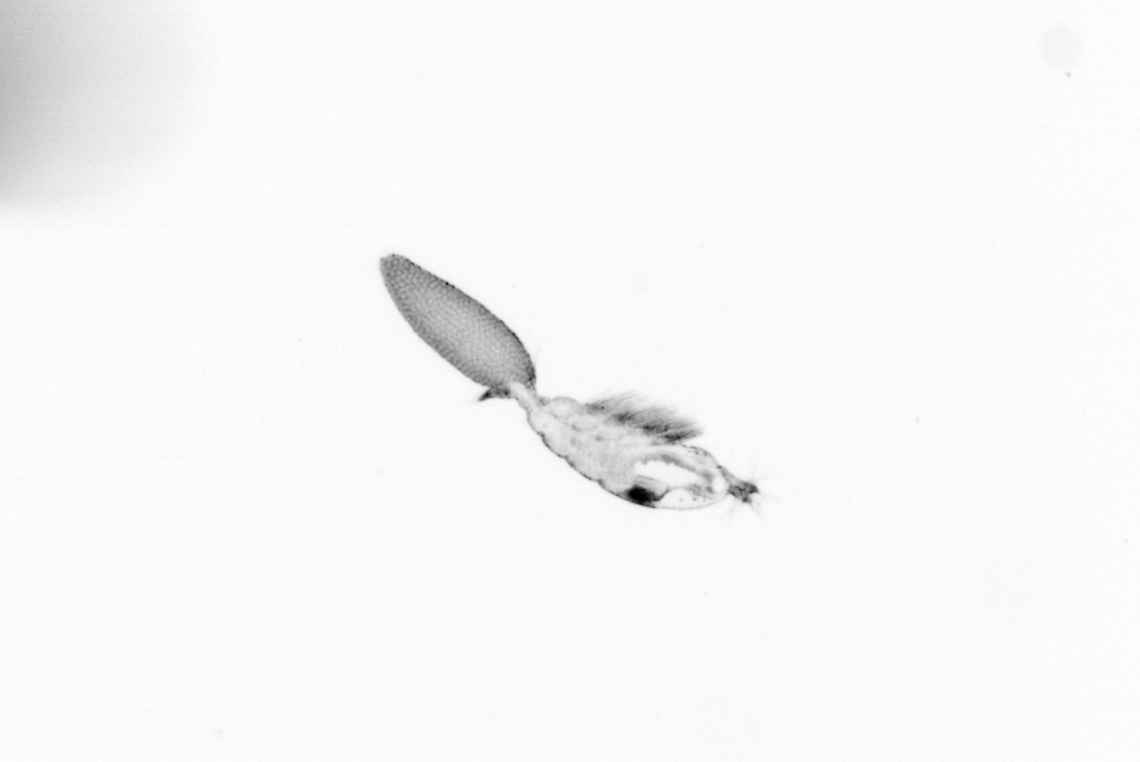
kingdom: Animalia
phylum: Arthropoda
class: Copepoda
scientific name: Copepoda
